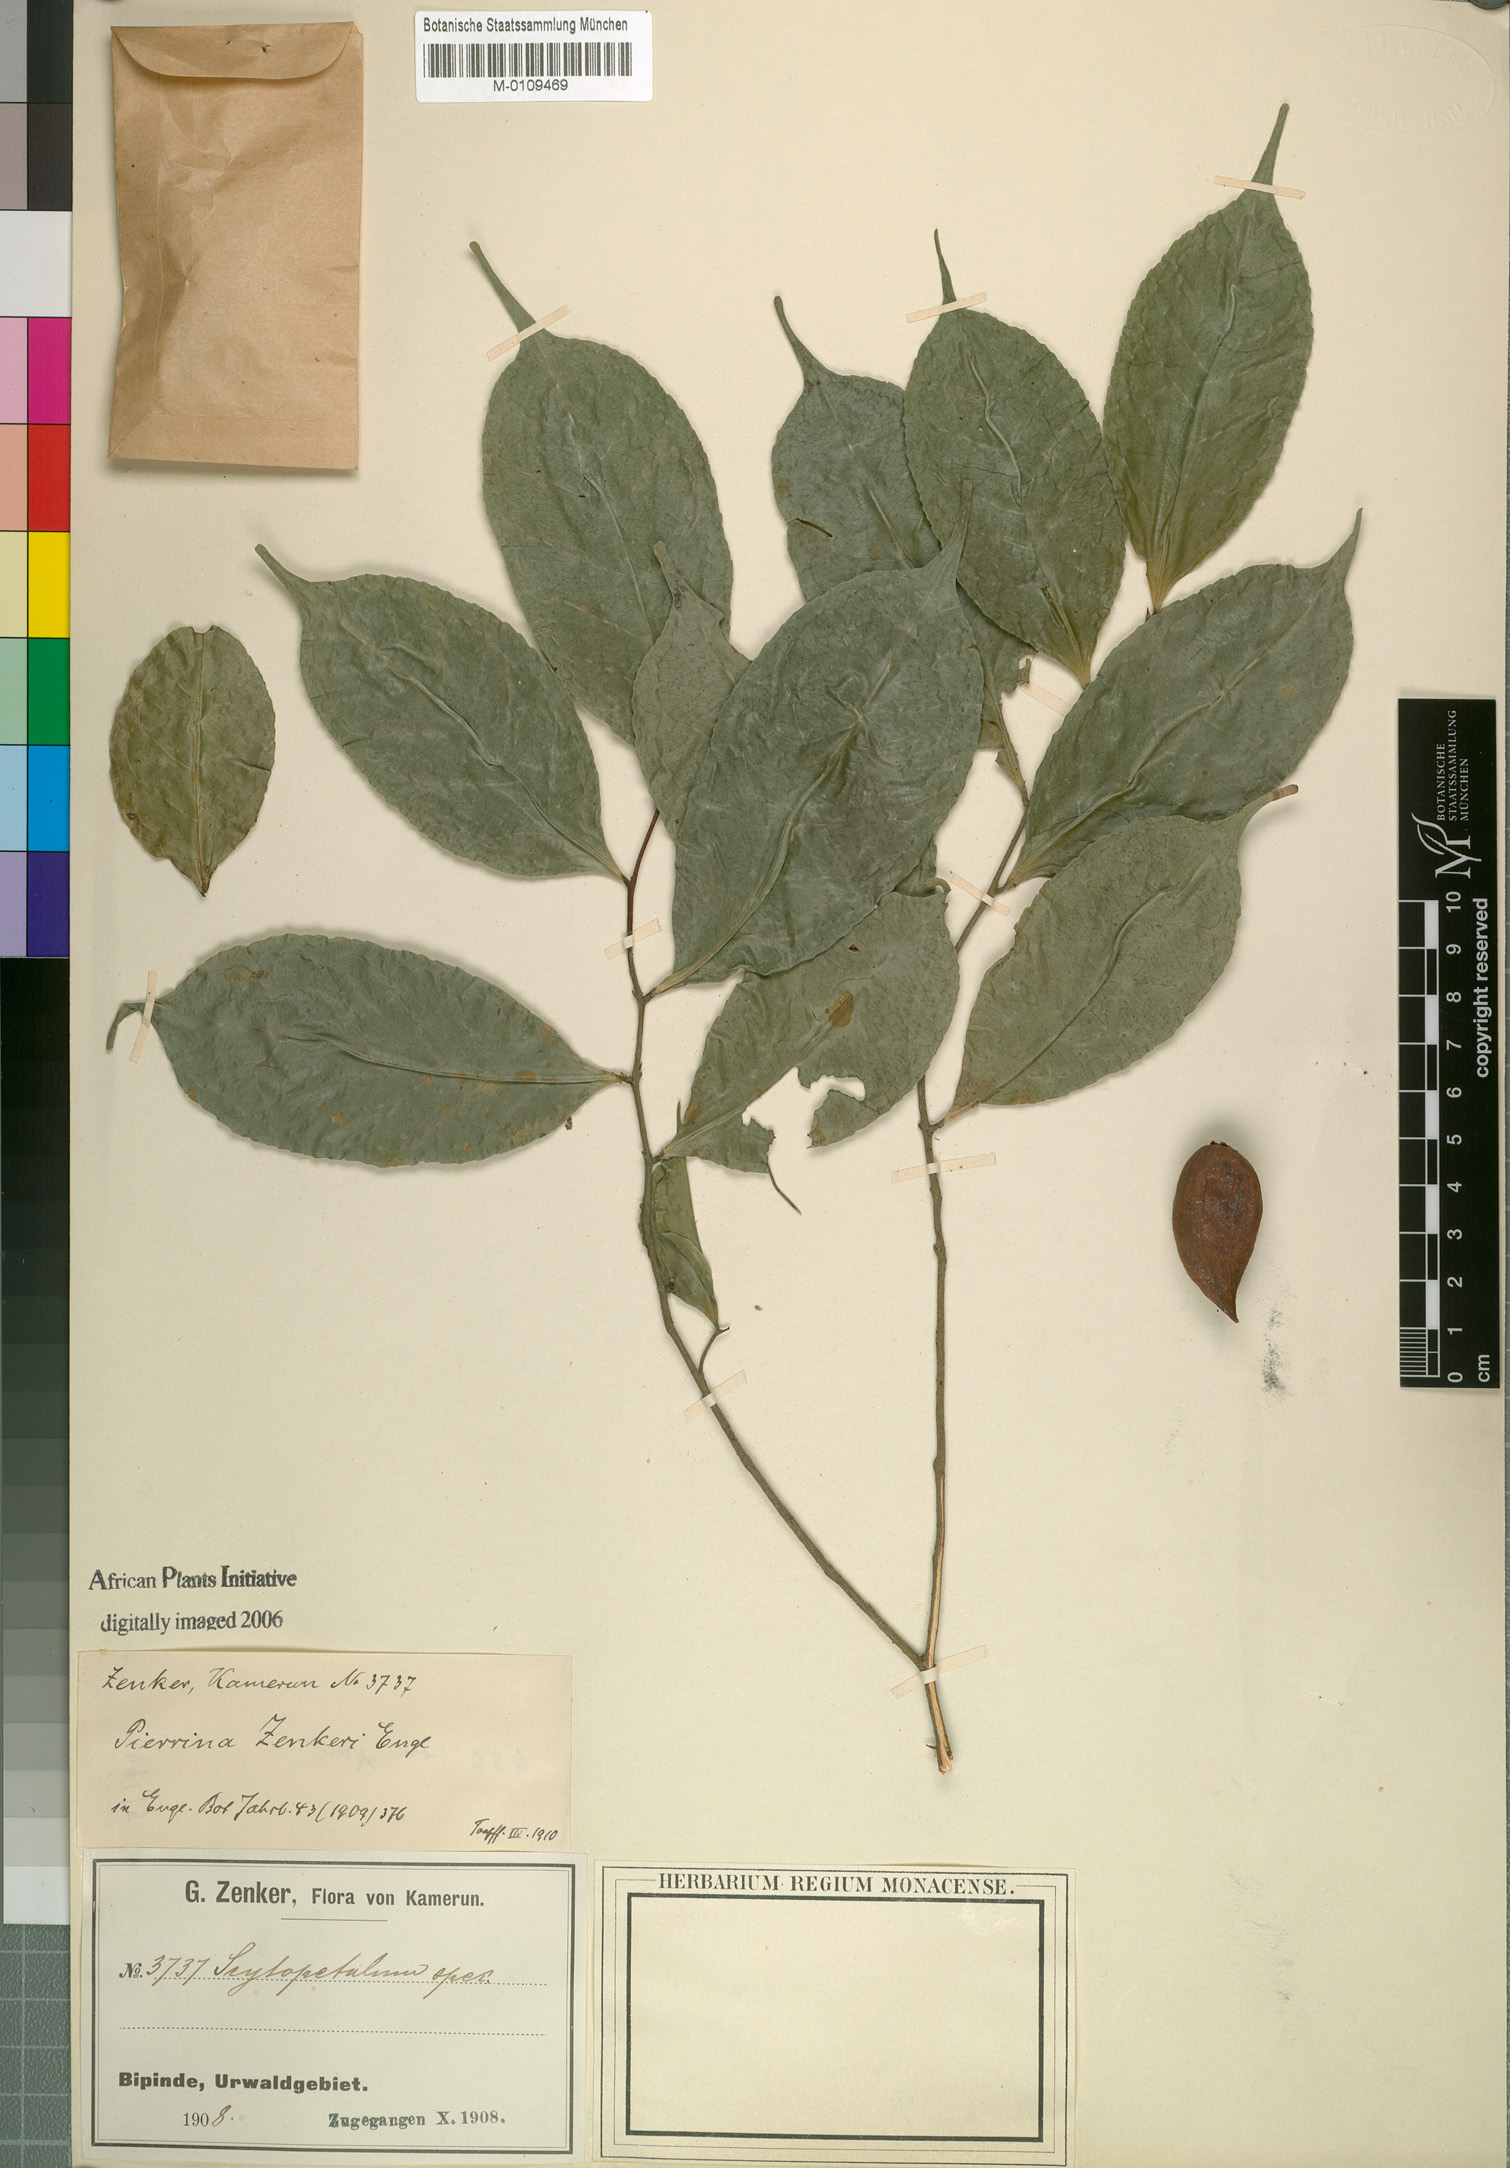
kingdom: Plantae
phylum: Tracheophyta
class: Magnoliopsida
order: Ericales
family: Lecythidaceae
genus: Pierrina
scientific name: Pierrina zenkeri
